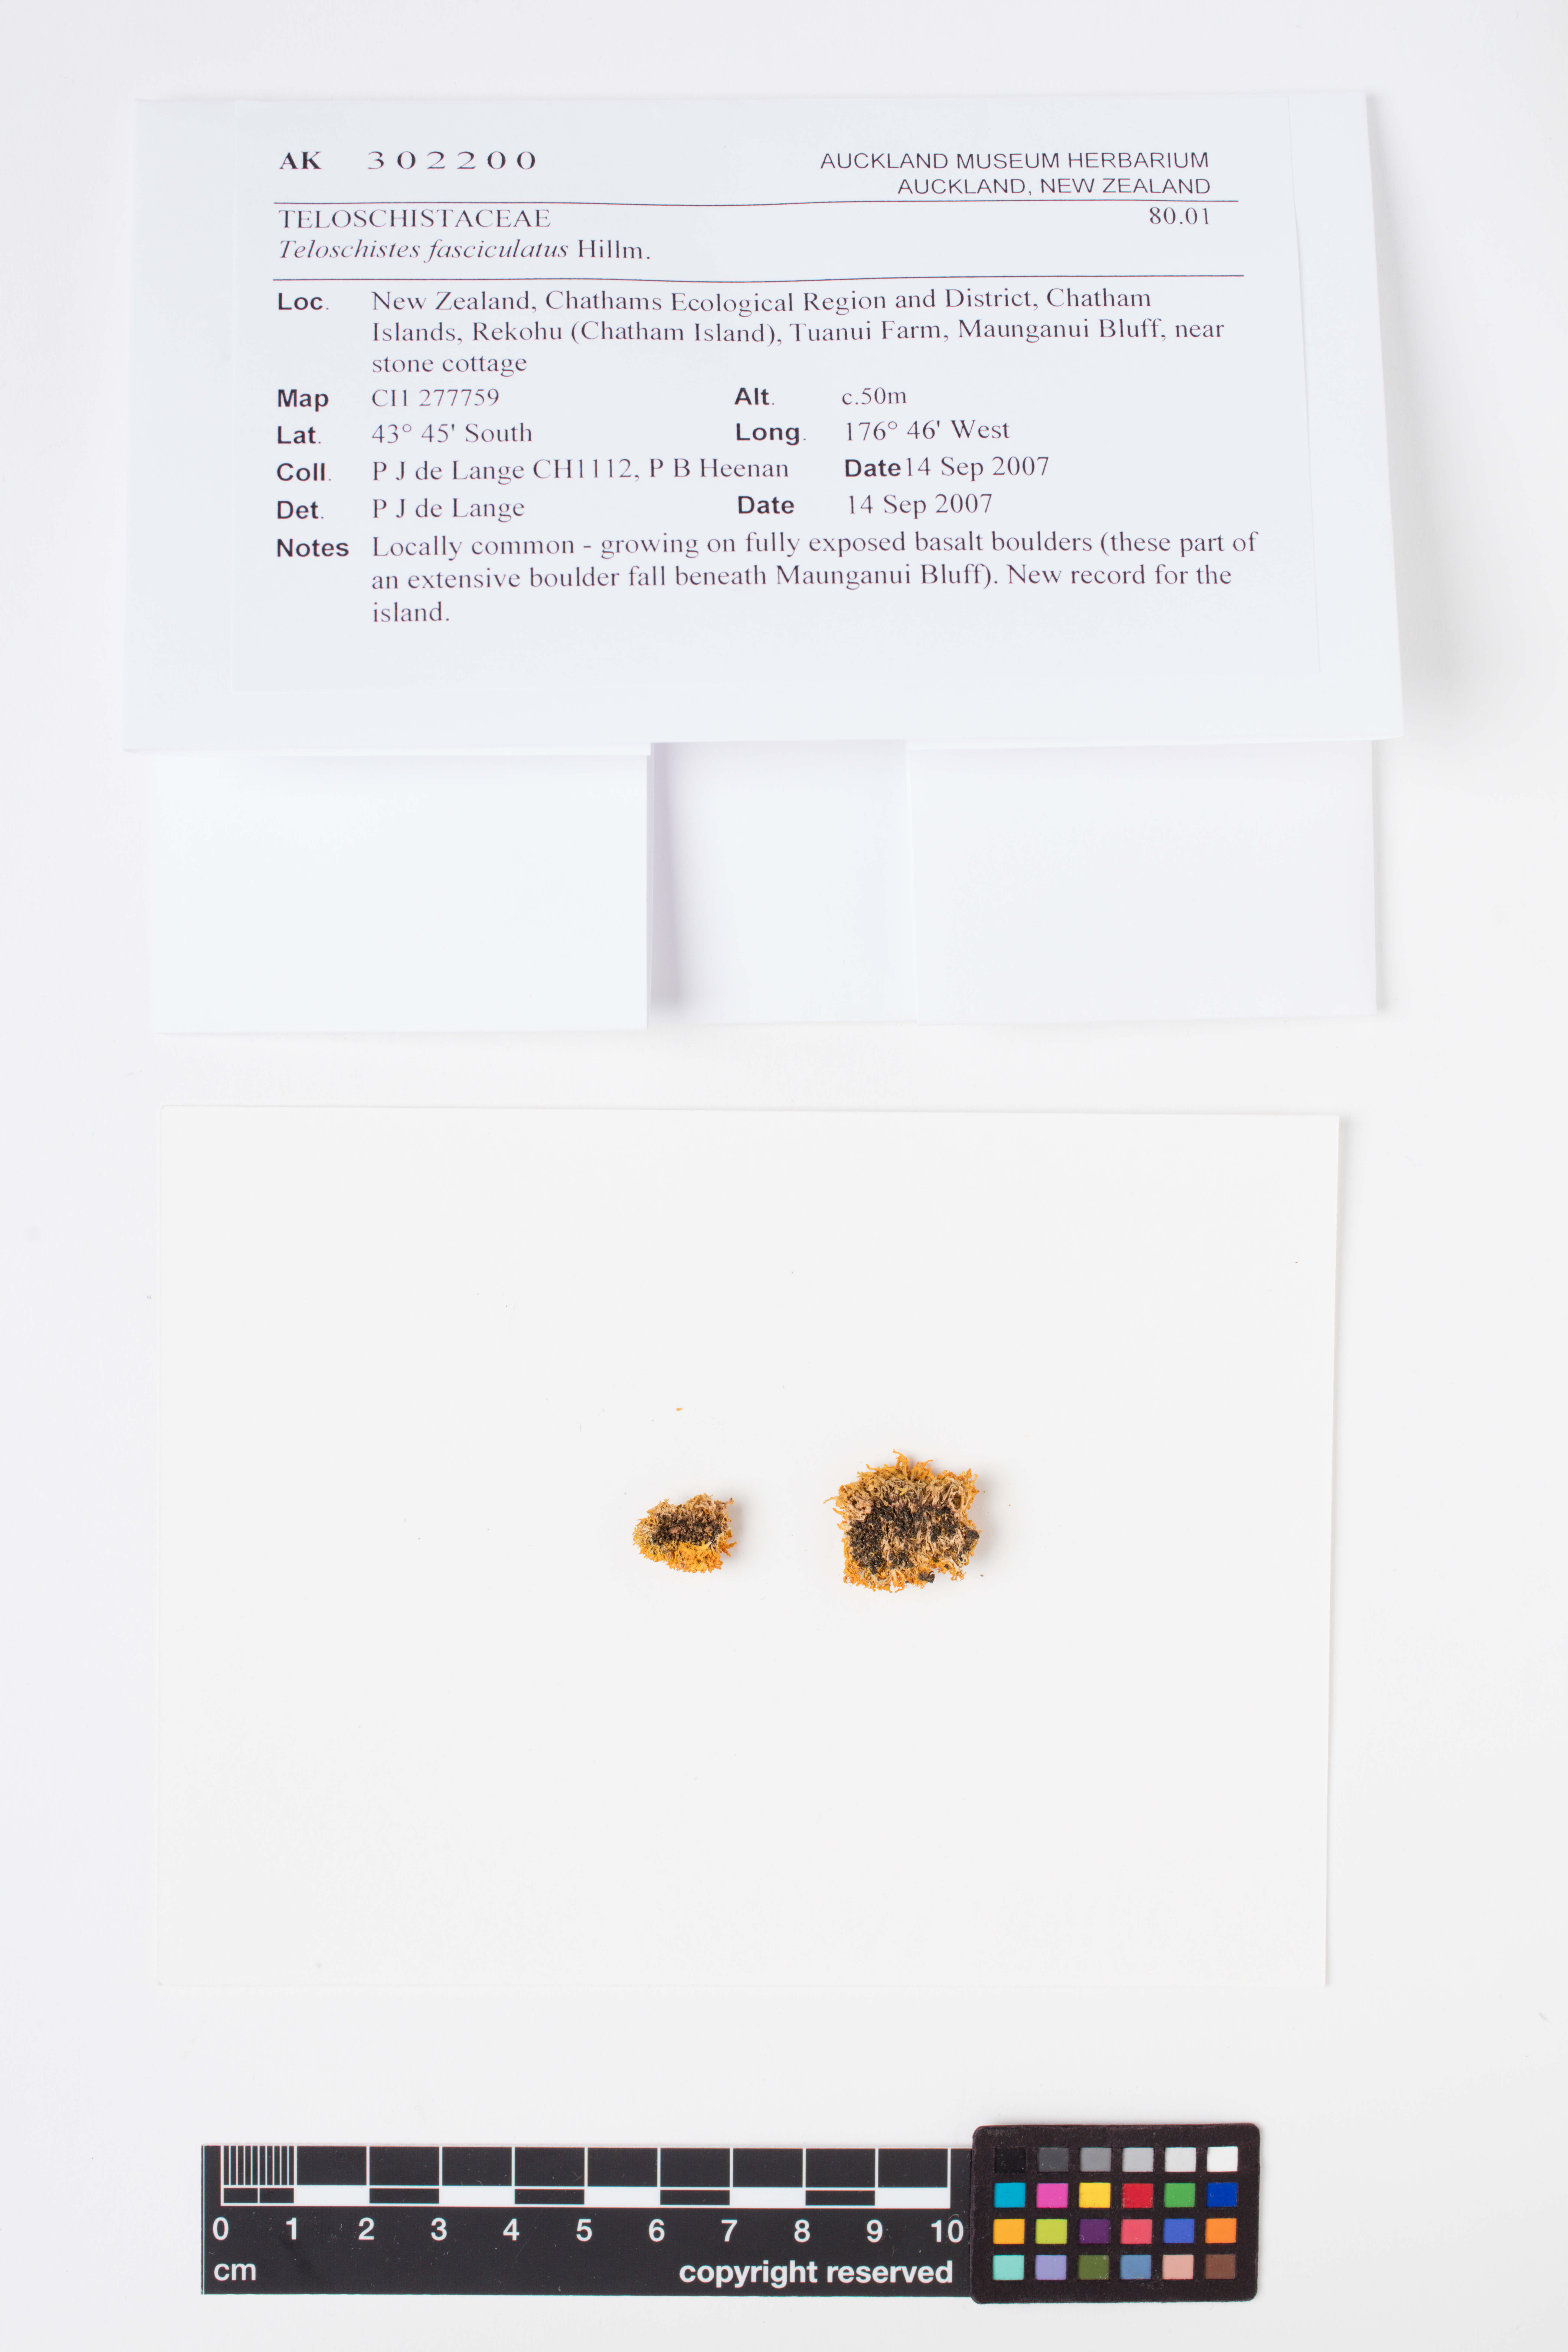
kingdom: Fungi
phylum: Ascomycota
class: Lecanoromycetes
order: Teloschistales
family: Teloschistaceae
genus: Teloschistes
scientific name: Teloschistes fasciculatus
